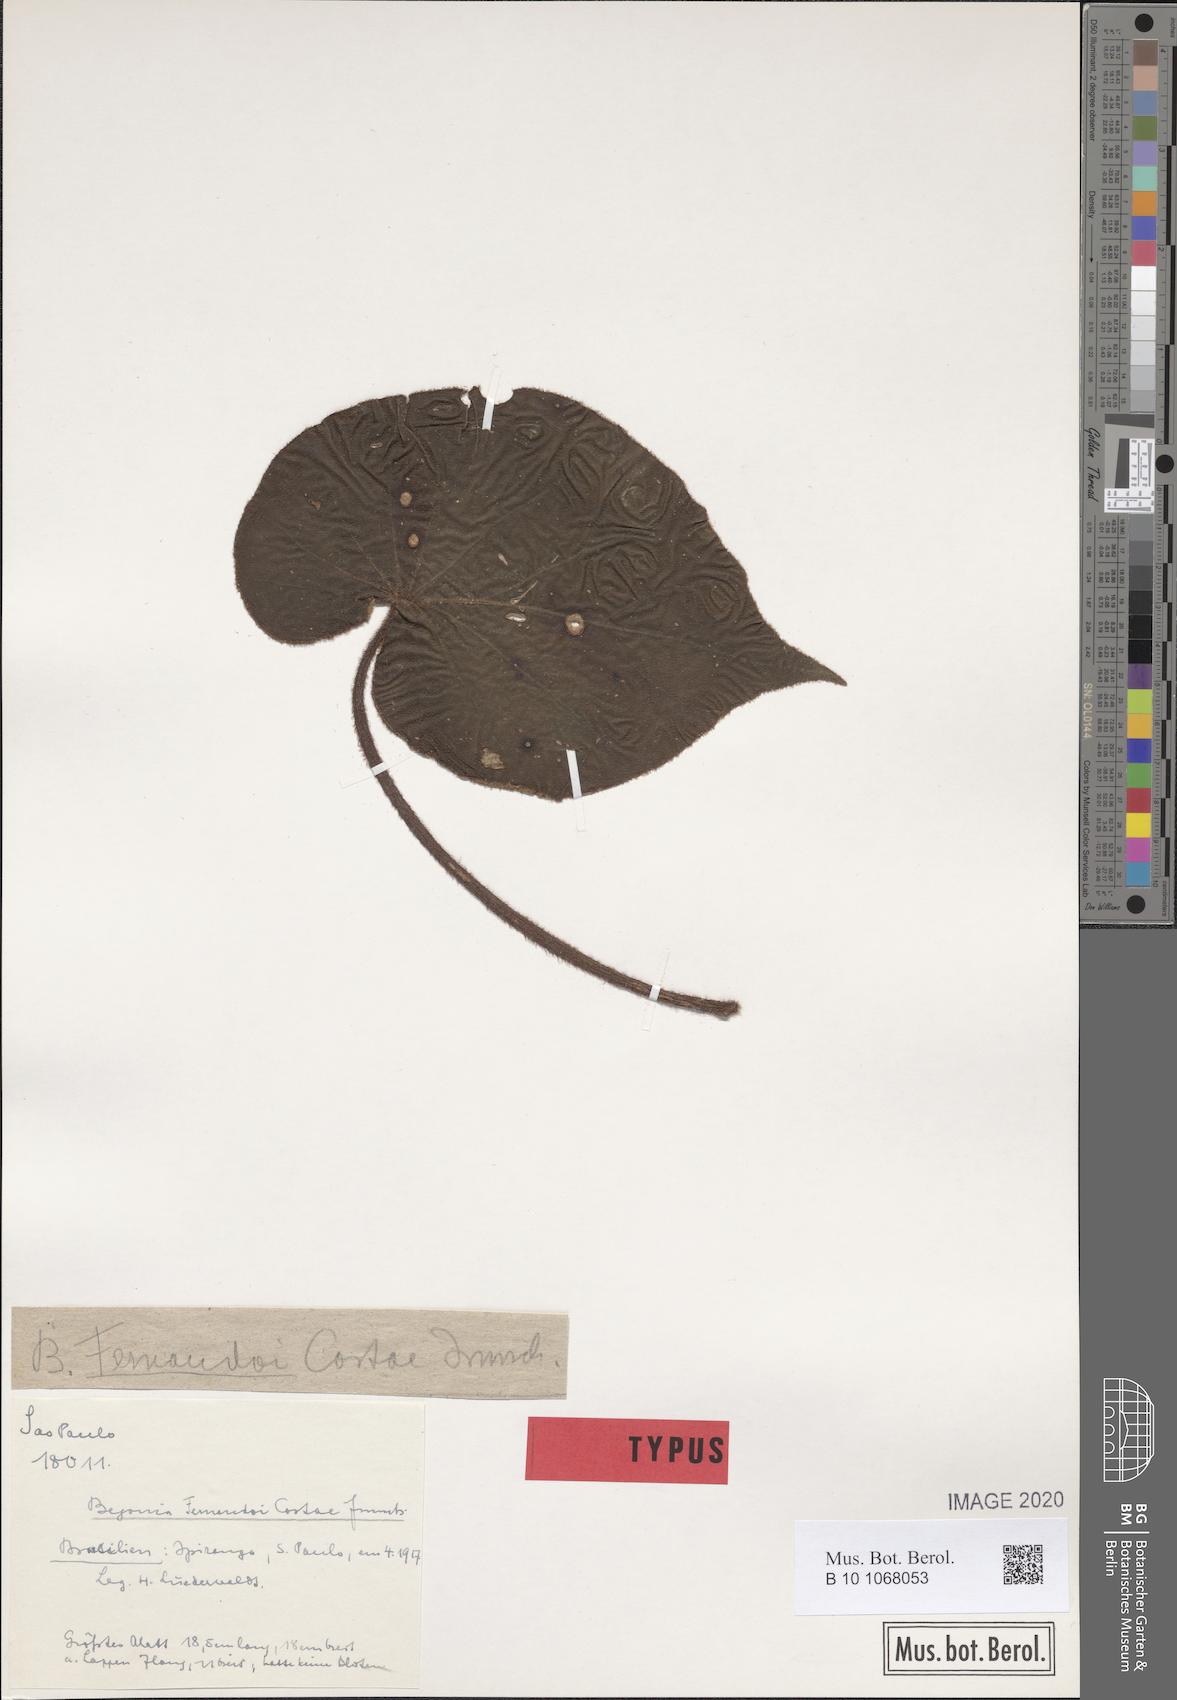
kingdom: Plantae
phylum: Tracheophyta
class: Magnoliopsida
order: Cucurbitales
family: Begoniaceae
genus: Begonia
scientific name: Begonia fernando-costae
